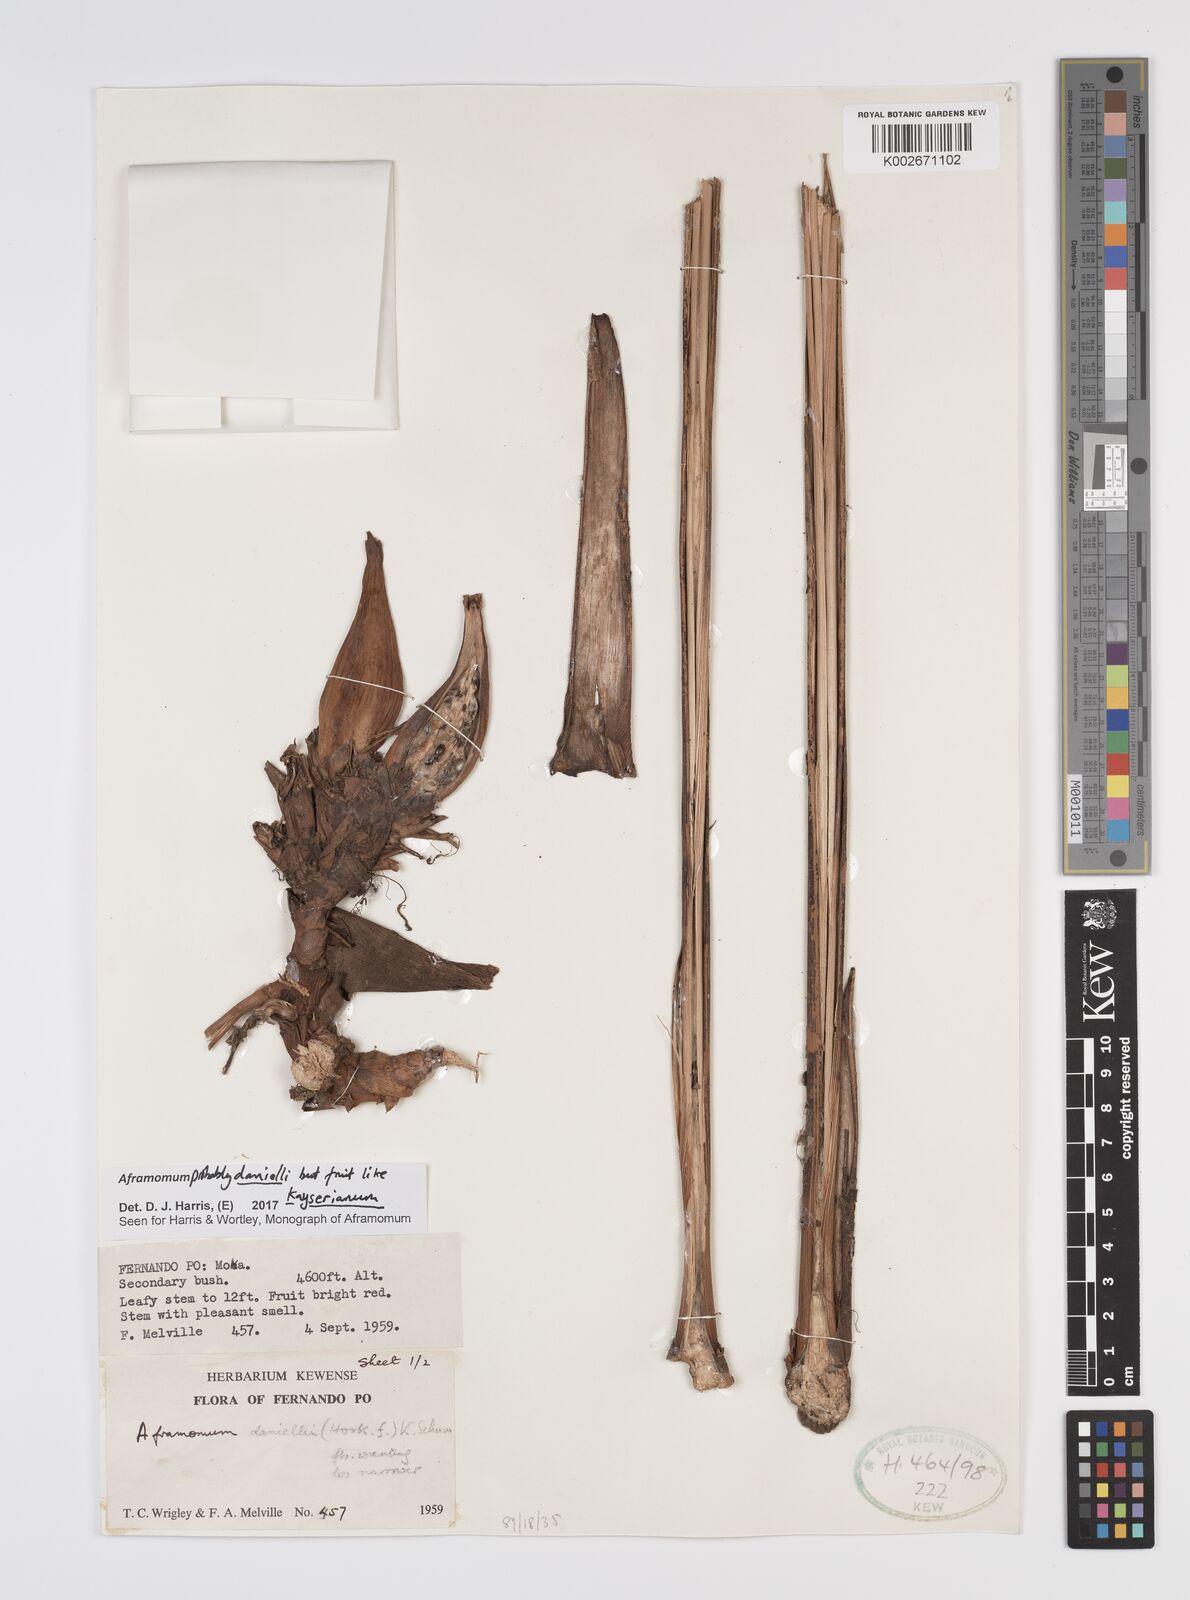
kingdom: Plantae
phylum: Tracheophyta
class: Liliopsida
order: Zingiberales
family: Zingiberaceae
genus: Aframomum
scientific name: Aframomum daniellii
